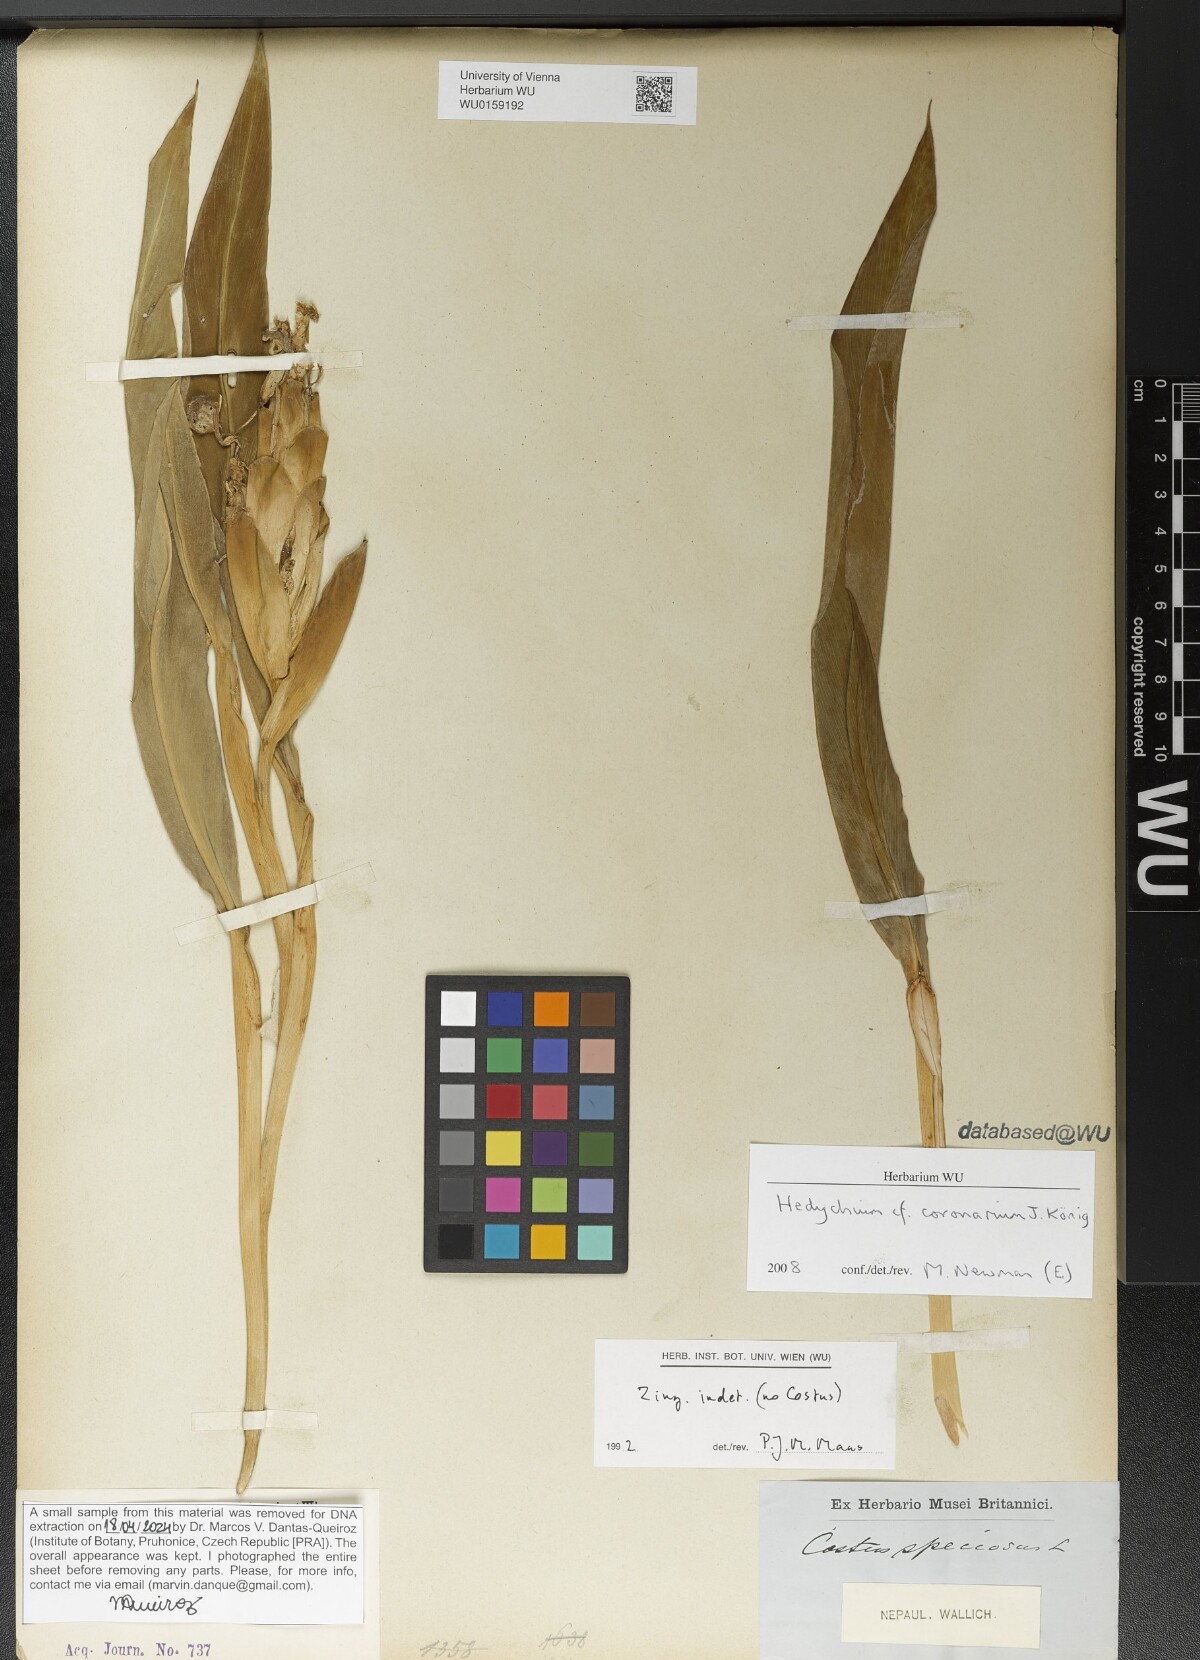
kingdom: Plantae
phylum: Tracheophyta
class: Liliopsida
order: Zingiberales
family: Zingiberaceae
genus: Hedychium
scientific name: Hedychium coronarium
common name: White garland-lily
